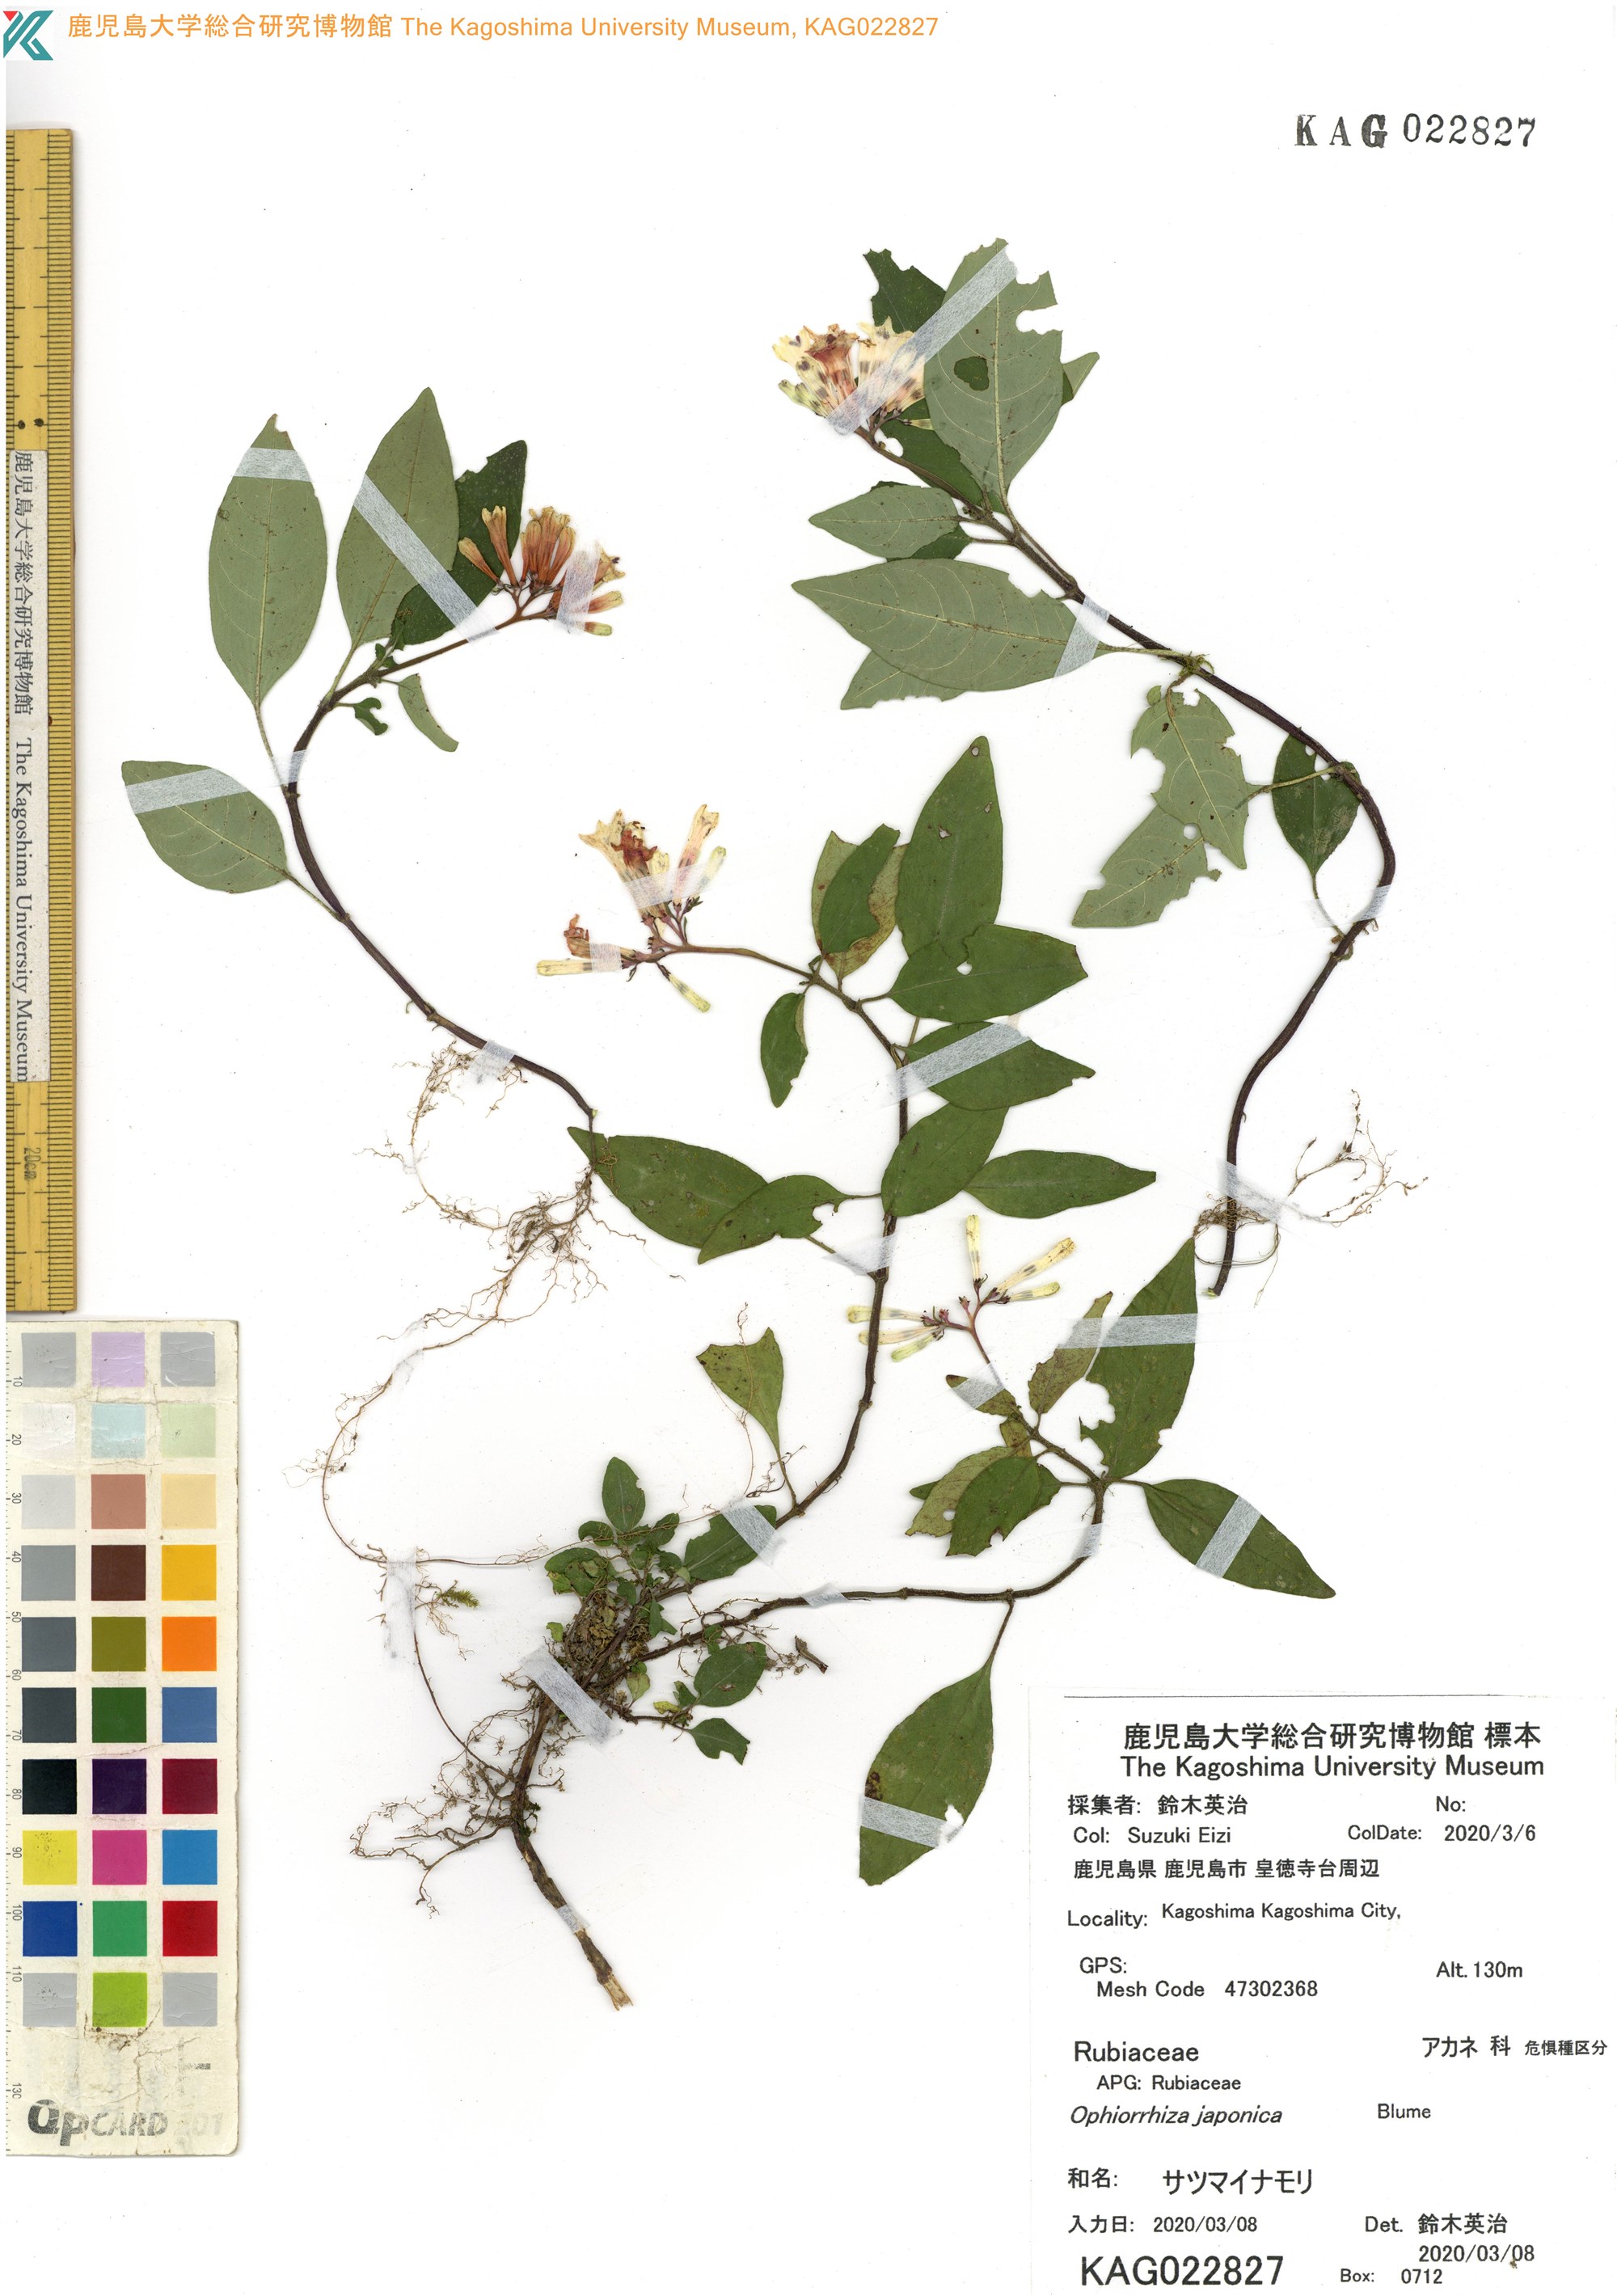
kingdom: Plantae
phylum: Tracheophyta
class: Magnoliopsida
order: Gentianales
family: Rubiaceae
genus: Ophiorrhiza
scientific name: Ophiorrhiza japonica
